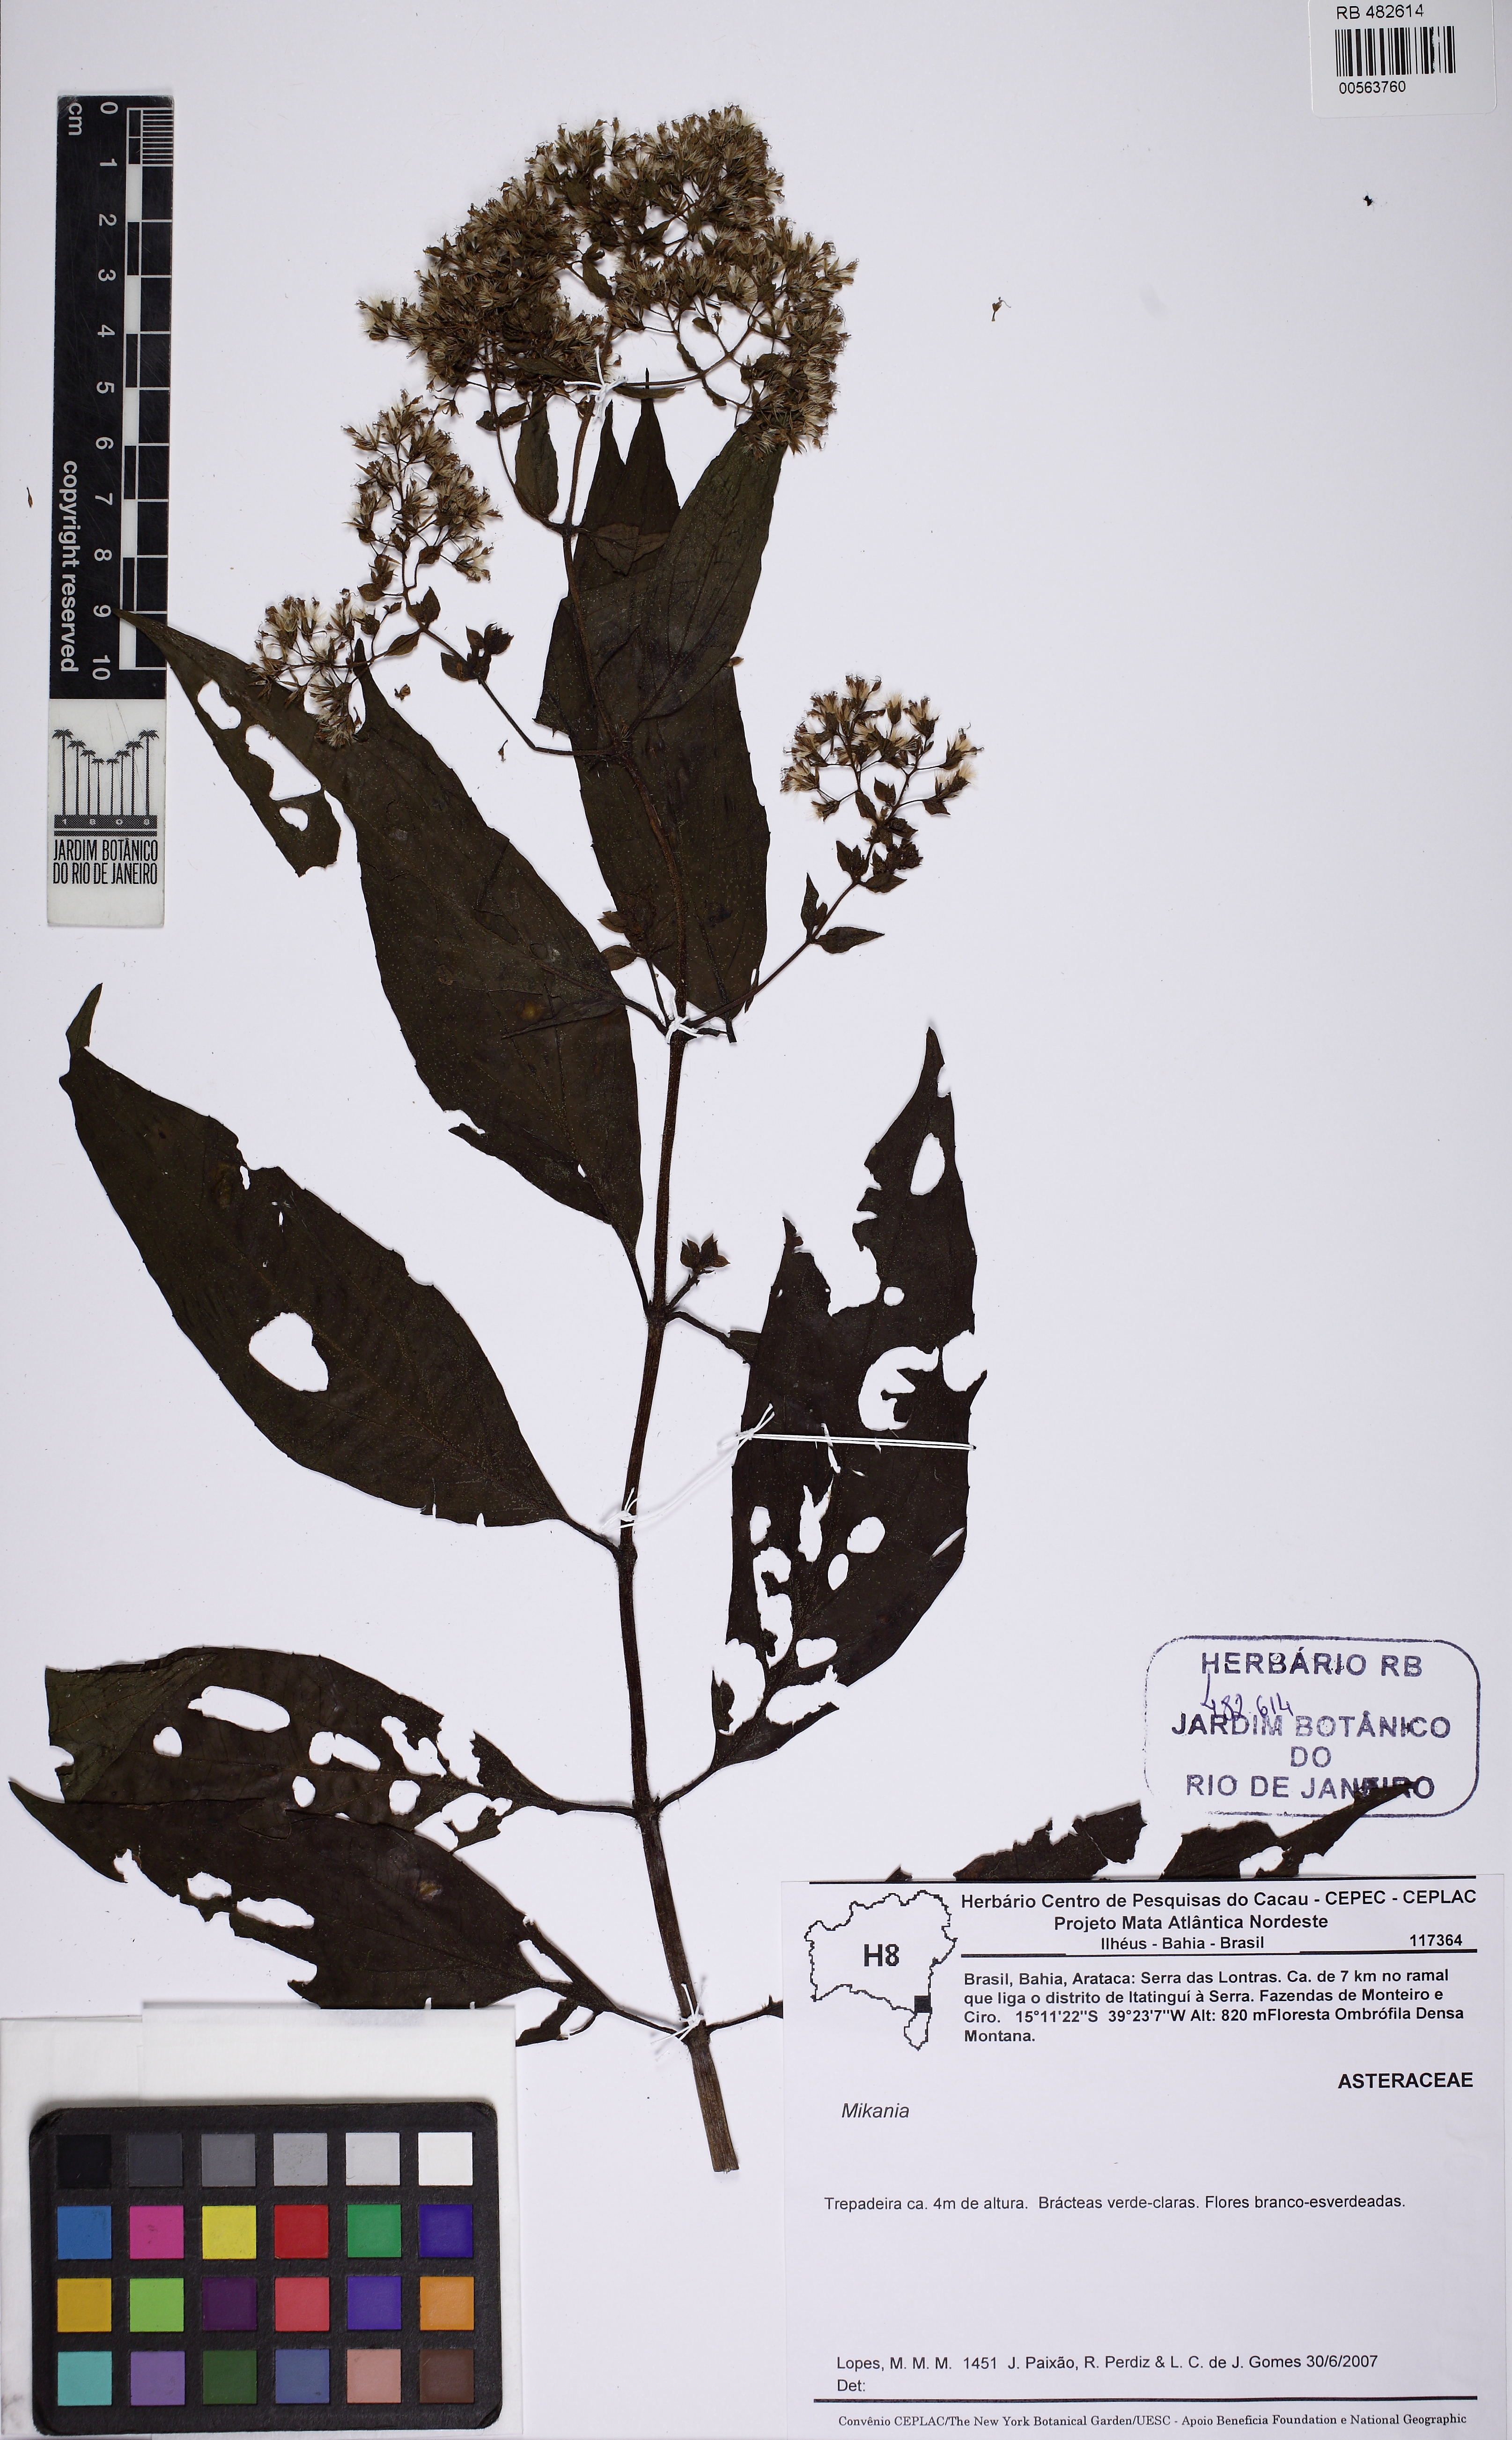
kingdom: Plantae
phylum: Tracheophyta
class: Magnoliopsida
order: Asterales
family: Asteraceae
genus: Mikania
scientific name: Mikania candolleana
